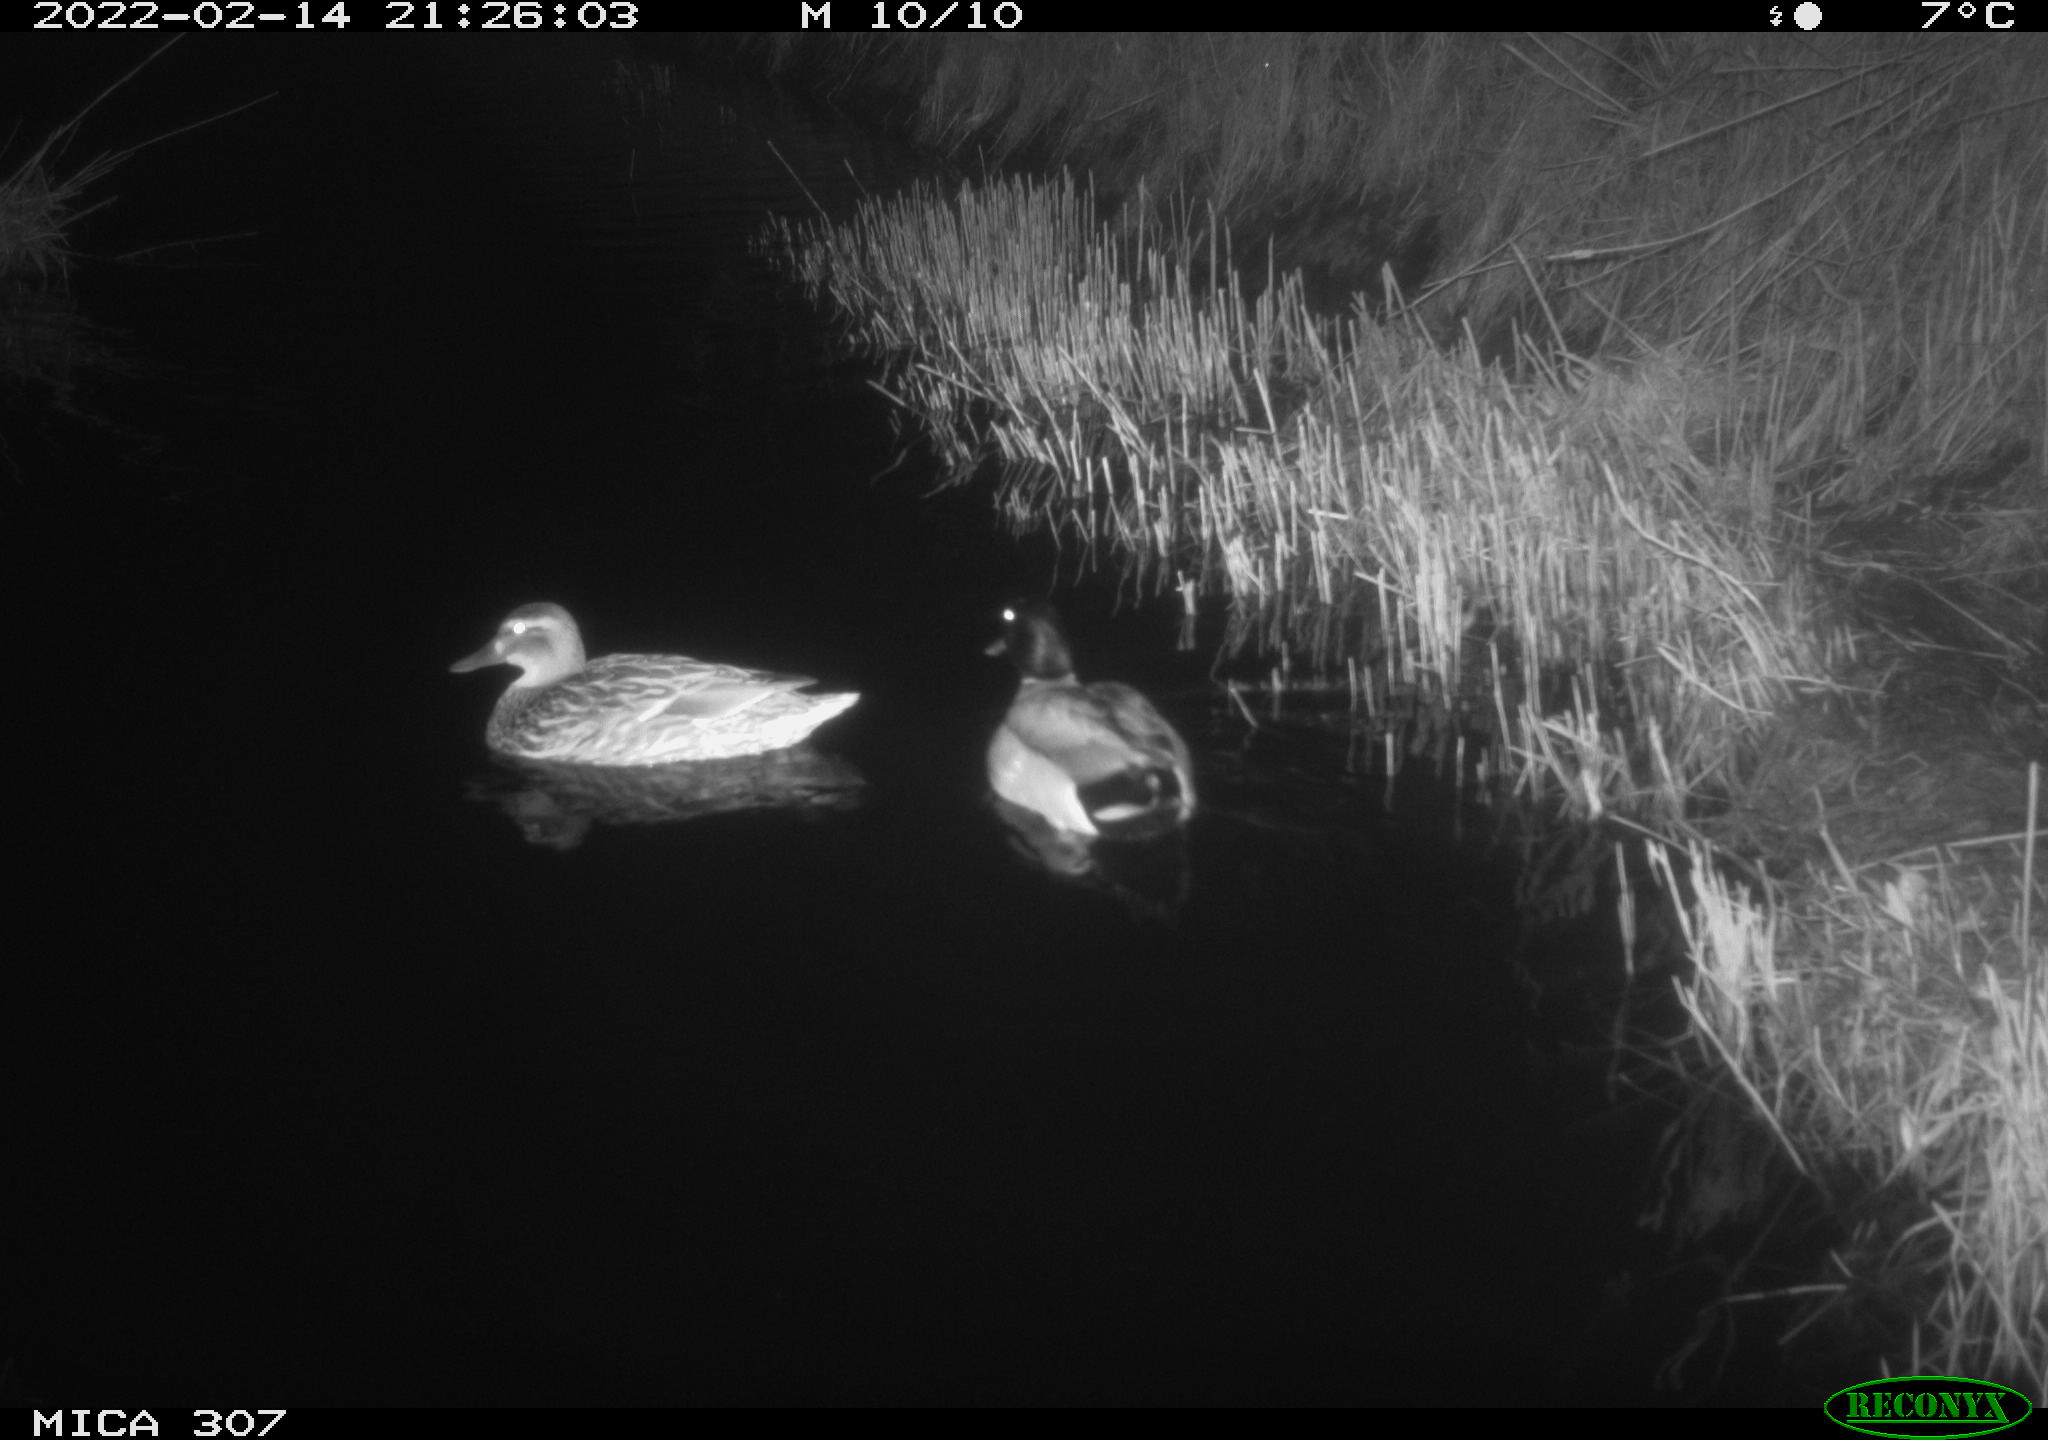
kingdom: Animalia
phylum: Chordata
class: Aves
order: Anseriformes
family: Anatidae
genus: Anas
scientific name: Anas platyrhynchos
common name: Mallard
